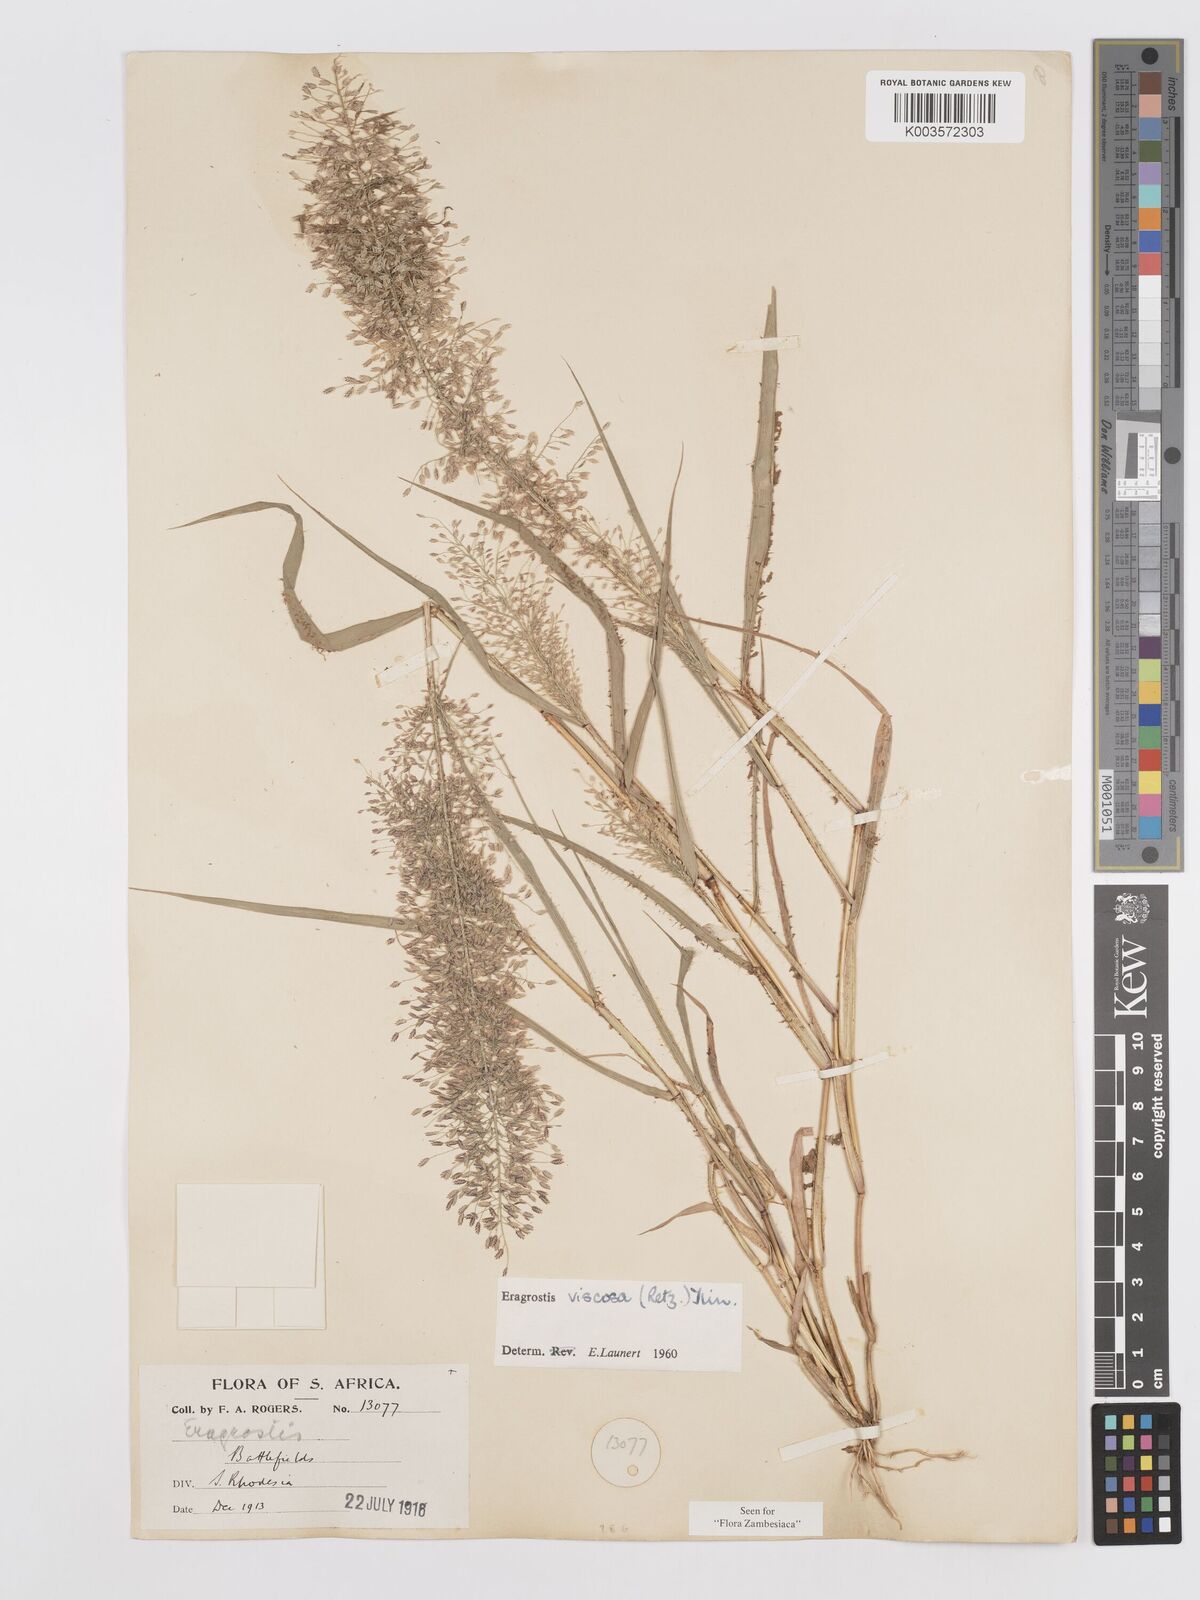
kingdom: Plantae
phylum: Tracheophyta
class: Liliopsida
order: Poales
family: Poaceae
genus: Eragrostis
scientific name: Eragrostis
